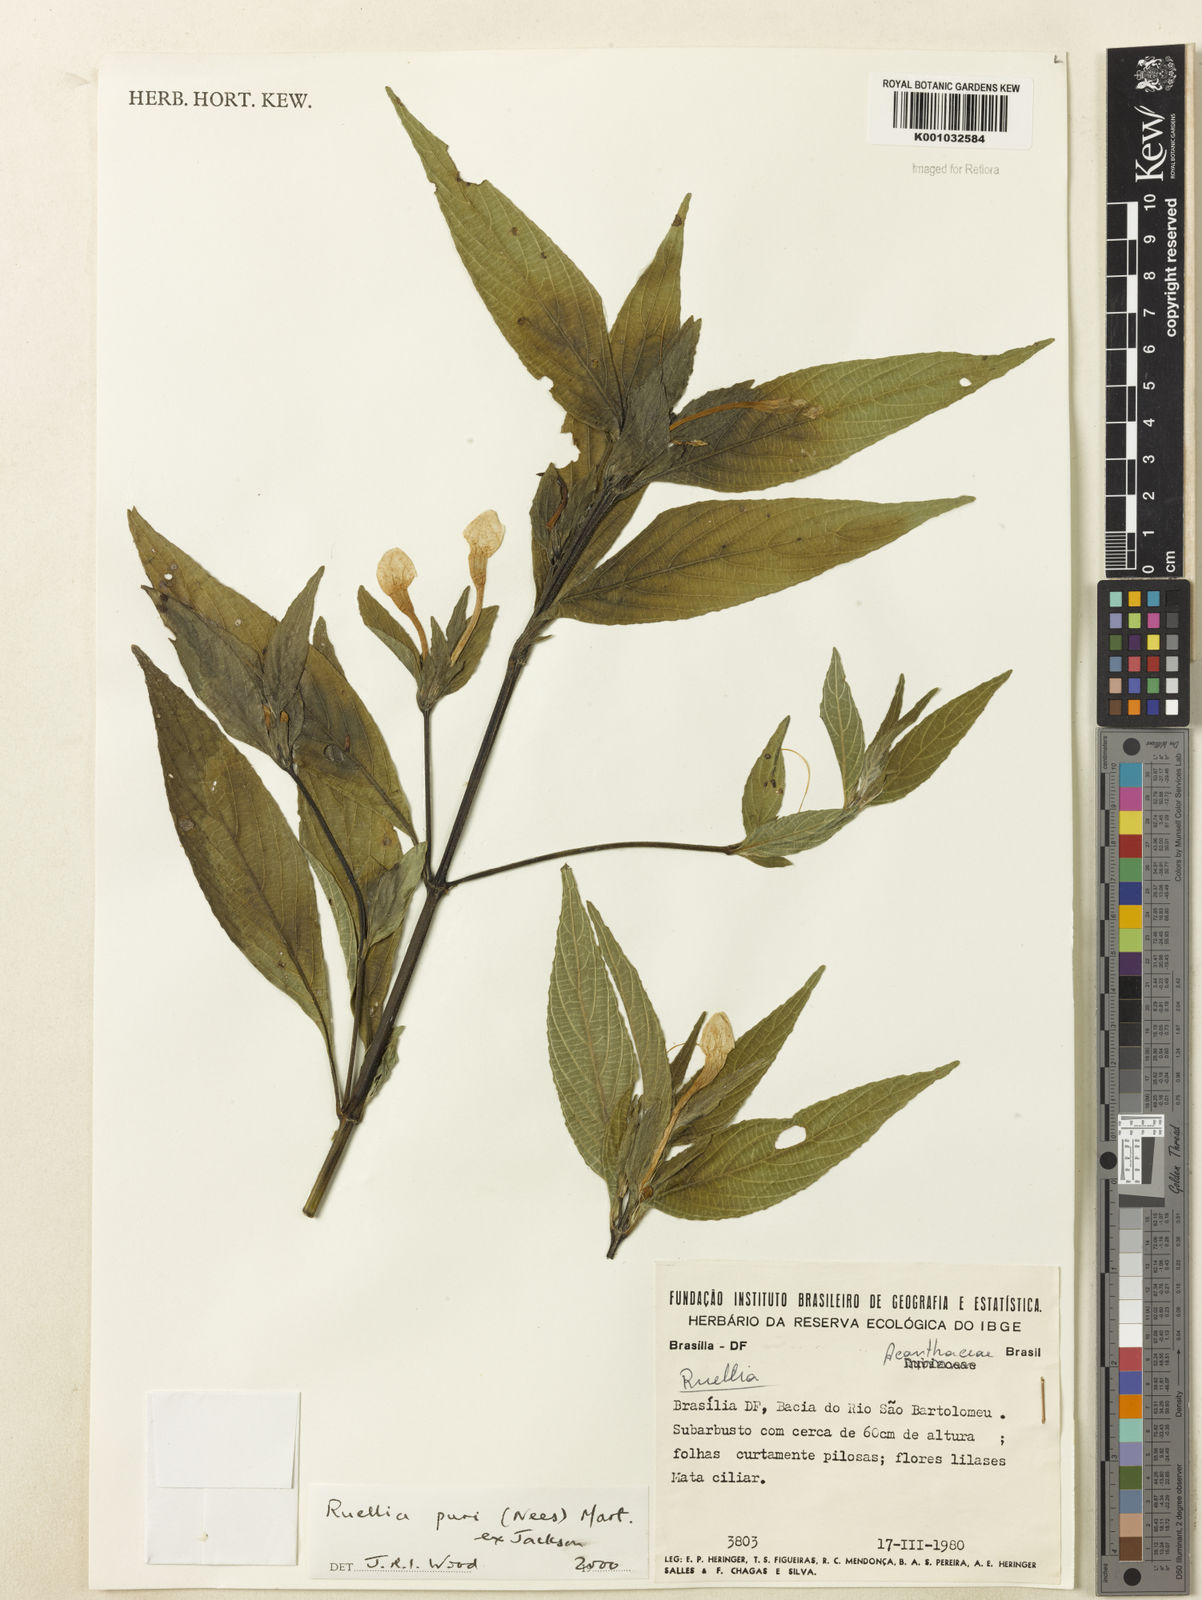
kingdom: Plantae
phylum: Tracheophyta
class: Magnoliopsida
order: Lamiales
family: Acanthaceae
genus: Ruellia
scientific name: Ruellia jussieuoides
